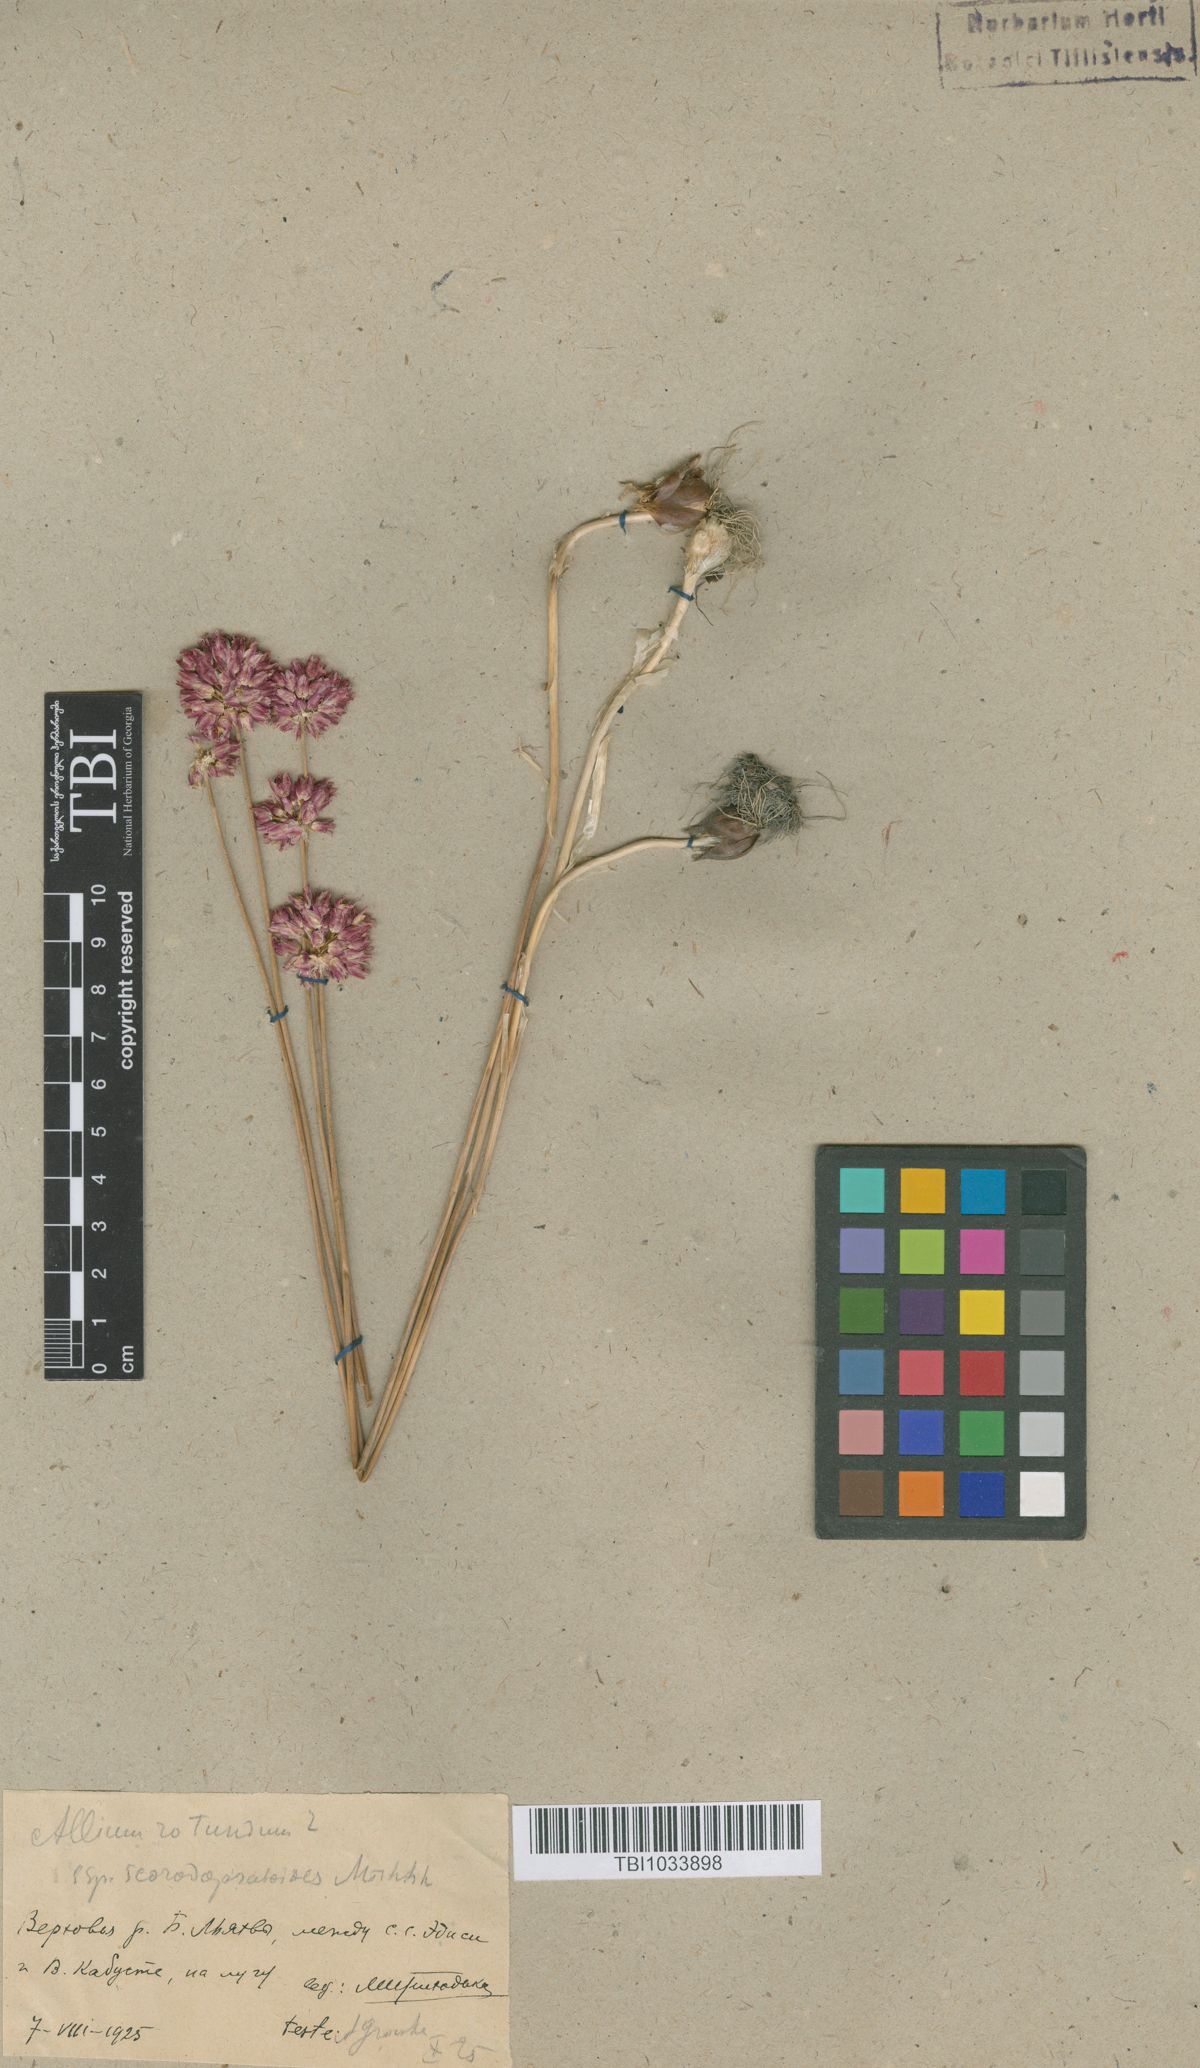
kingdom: Plantae
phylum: Tracheophyta
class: Liliopsida
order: Asparagales
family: Amaryllidaceae
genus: Allium
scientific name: Allium rotundum
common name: Sand leek
